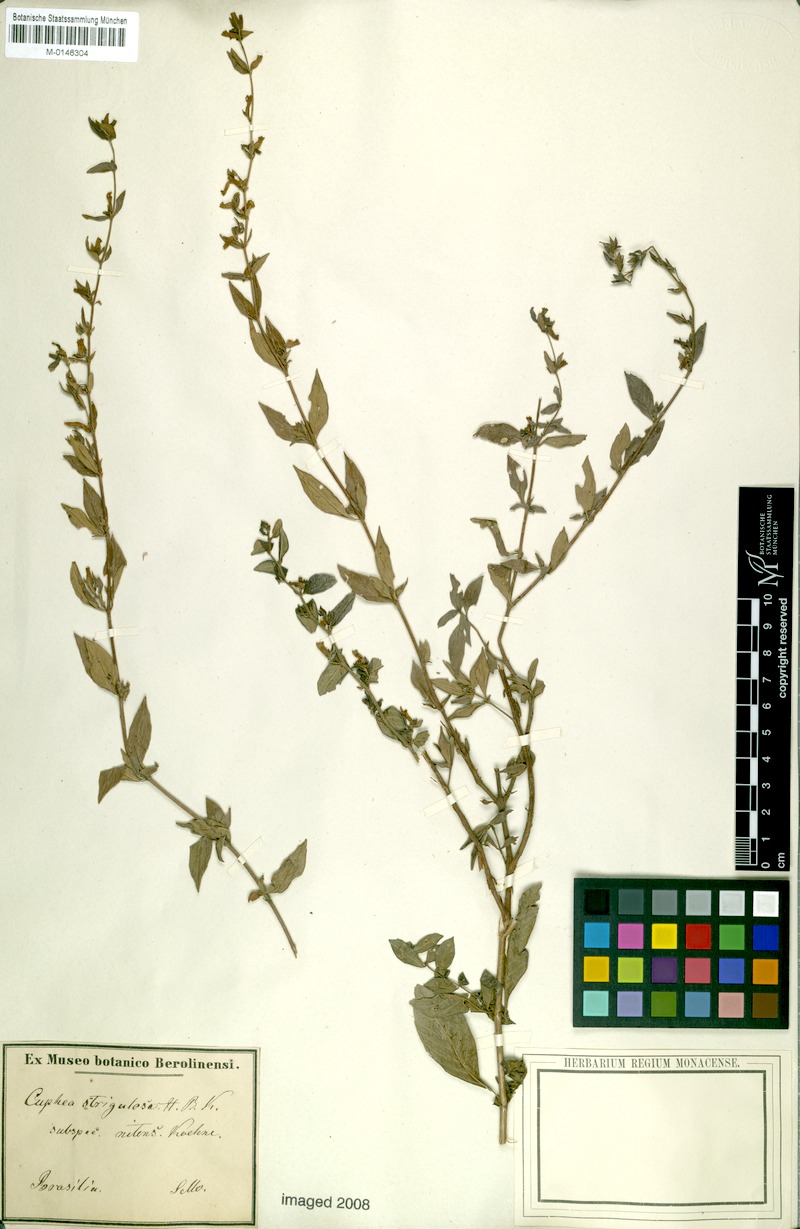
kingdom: Plantae
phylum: Tracheophyta
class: Magnoliopsida
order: Myrtales
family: Lythraceae
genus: Cuphea
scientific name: Cuphea strigulosa
